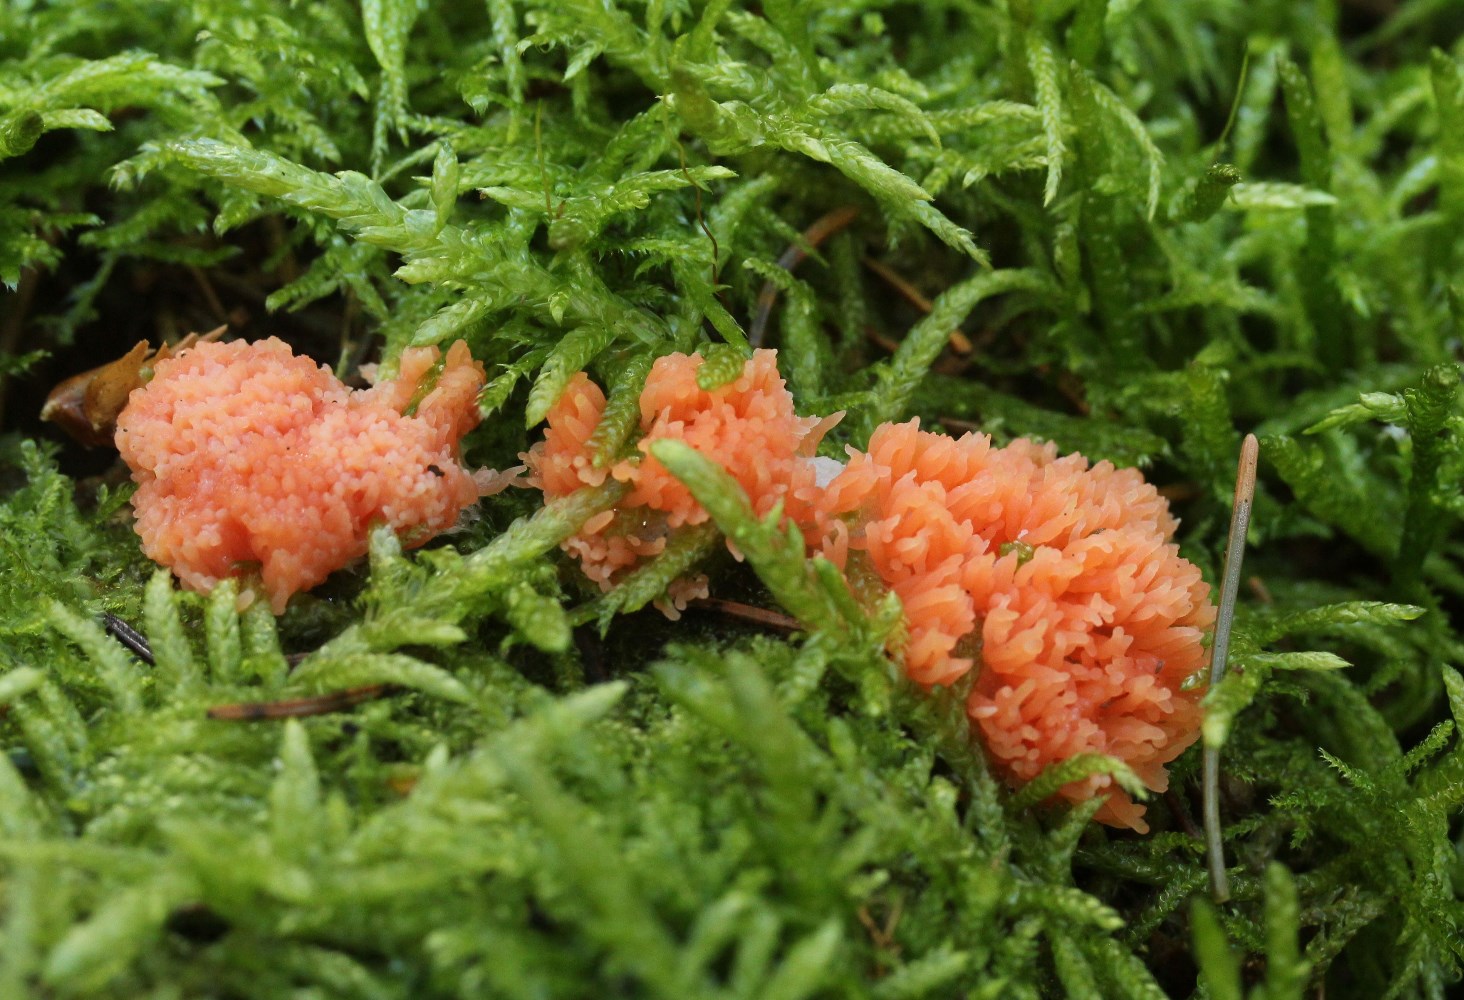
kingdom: Protozoa
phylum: Mycetozoa
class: Myxomycetes
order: Cribrariales
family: Tubiferaceae
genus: Tubifera
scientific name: Tubifera ferruginosa
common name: kanel-støvrør
